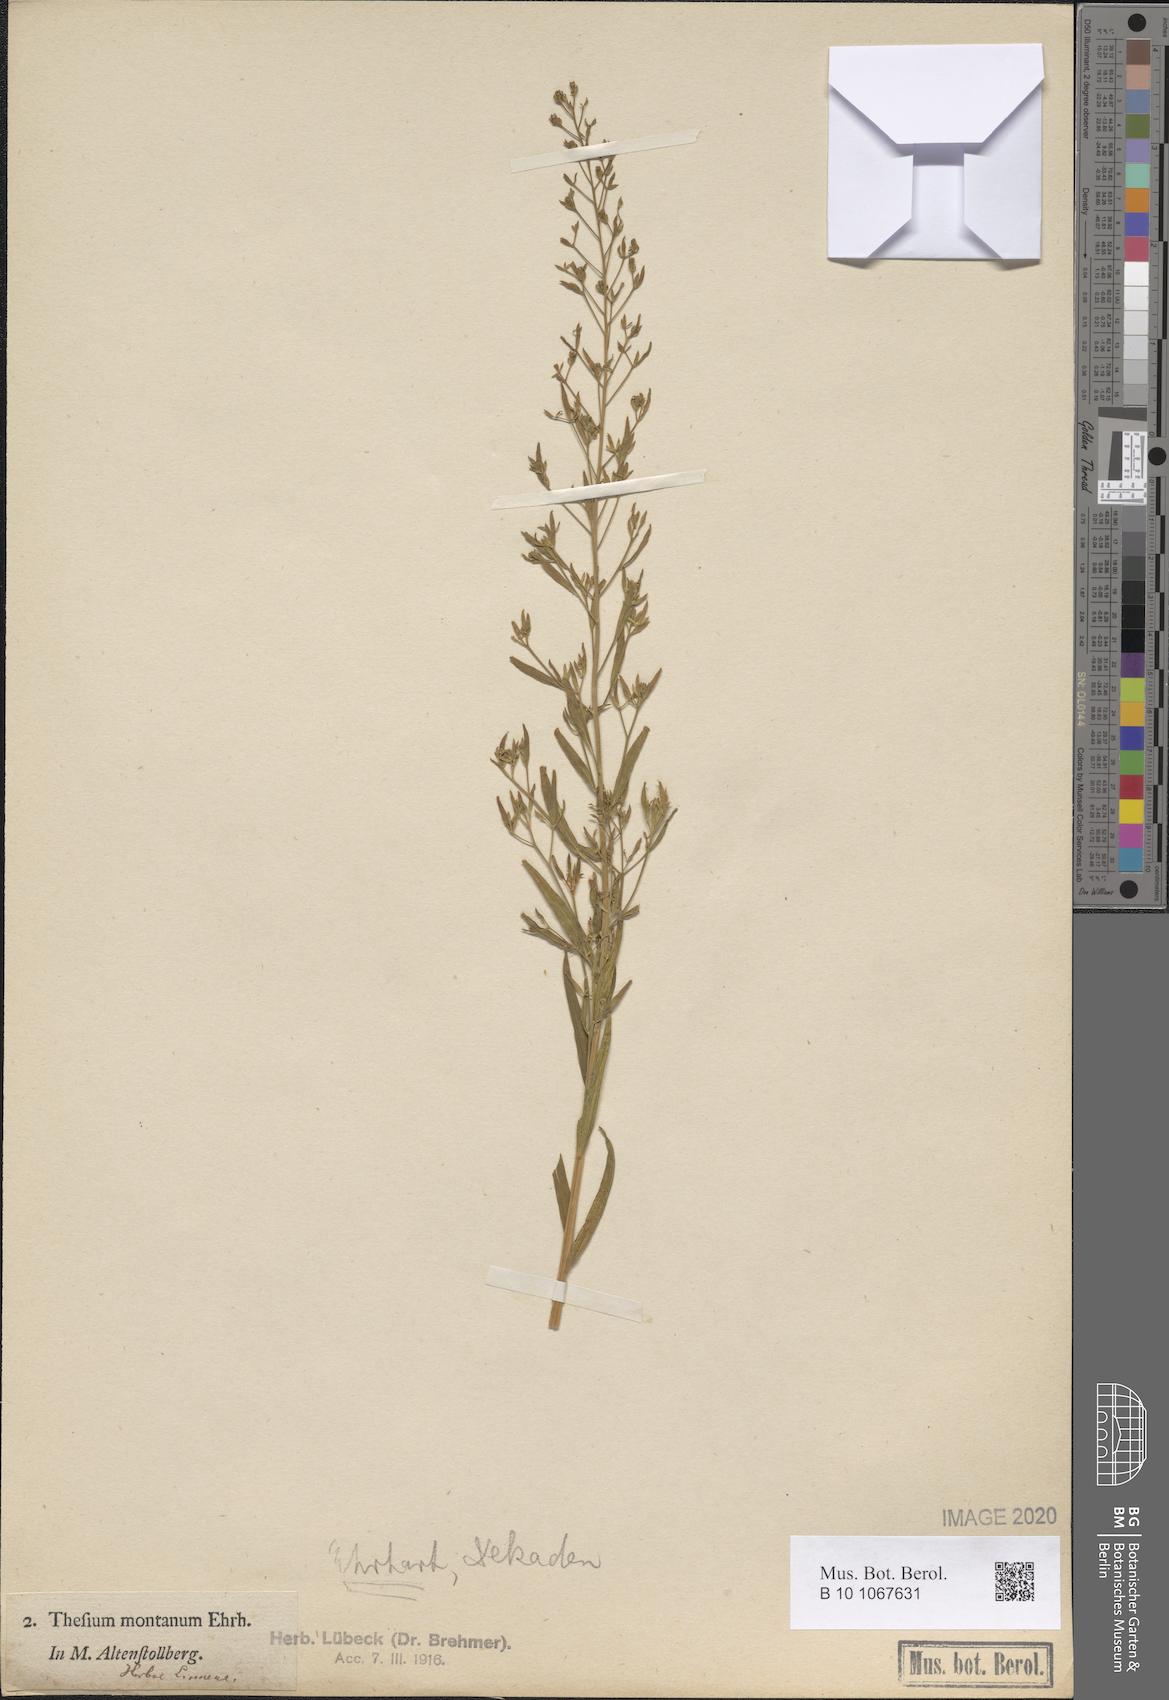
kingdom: Plantae
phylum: Tracheophyta
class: Magnoliopsida
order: Santalales
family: Thesiaceae
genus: Thesium
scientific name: Thesium linophyllon
